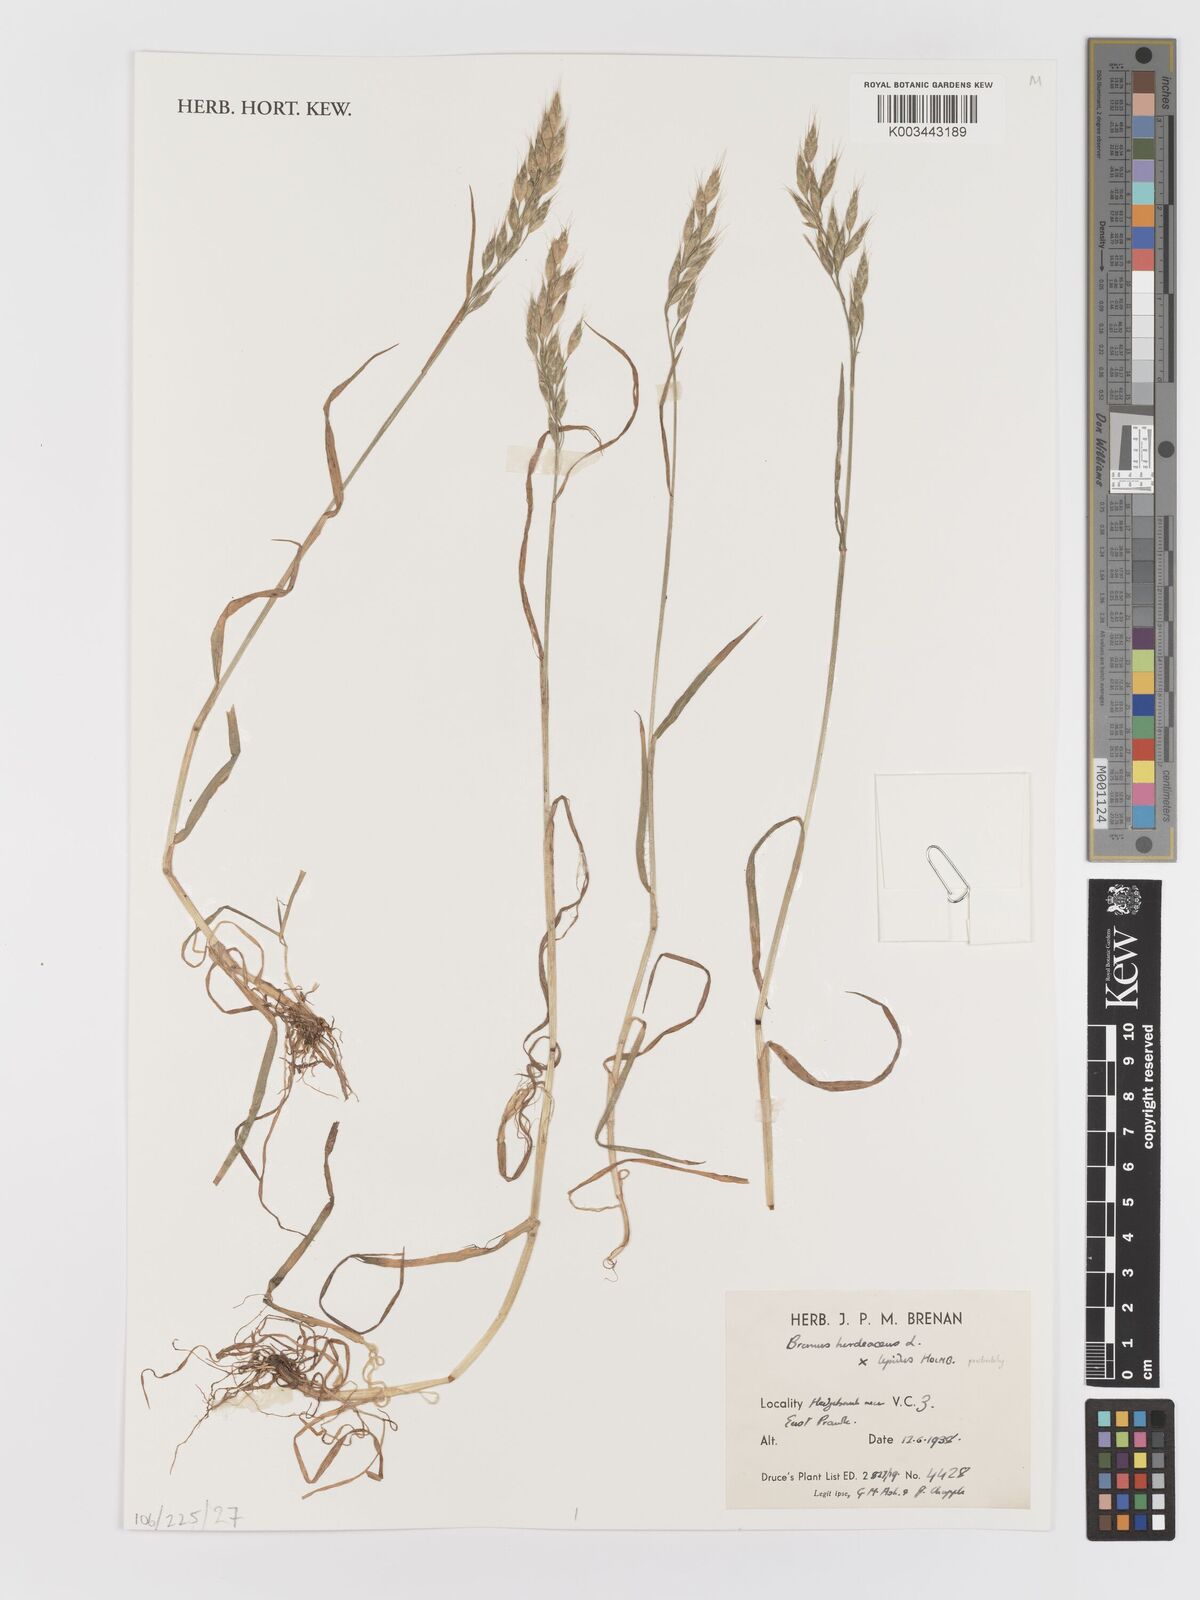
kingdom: Plantae
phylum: Tracheophyta
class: Liliopsida
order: Poales
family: Poaceae
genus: Bromus
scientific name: Bromus
